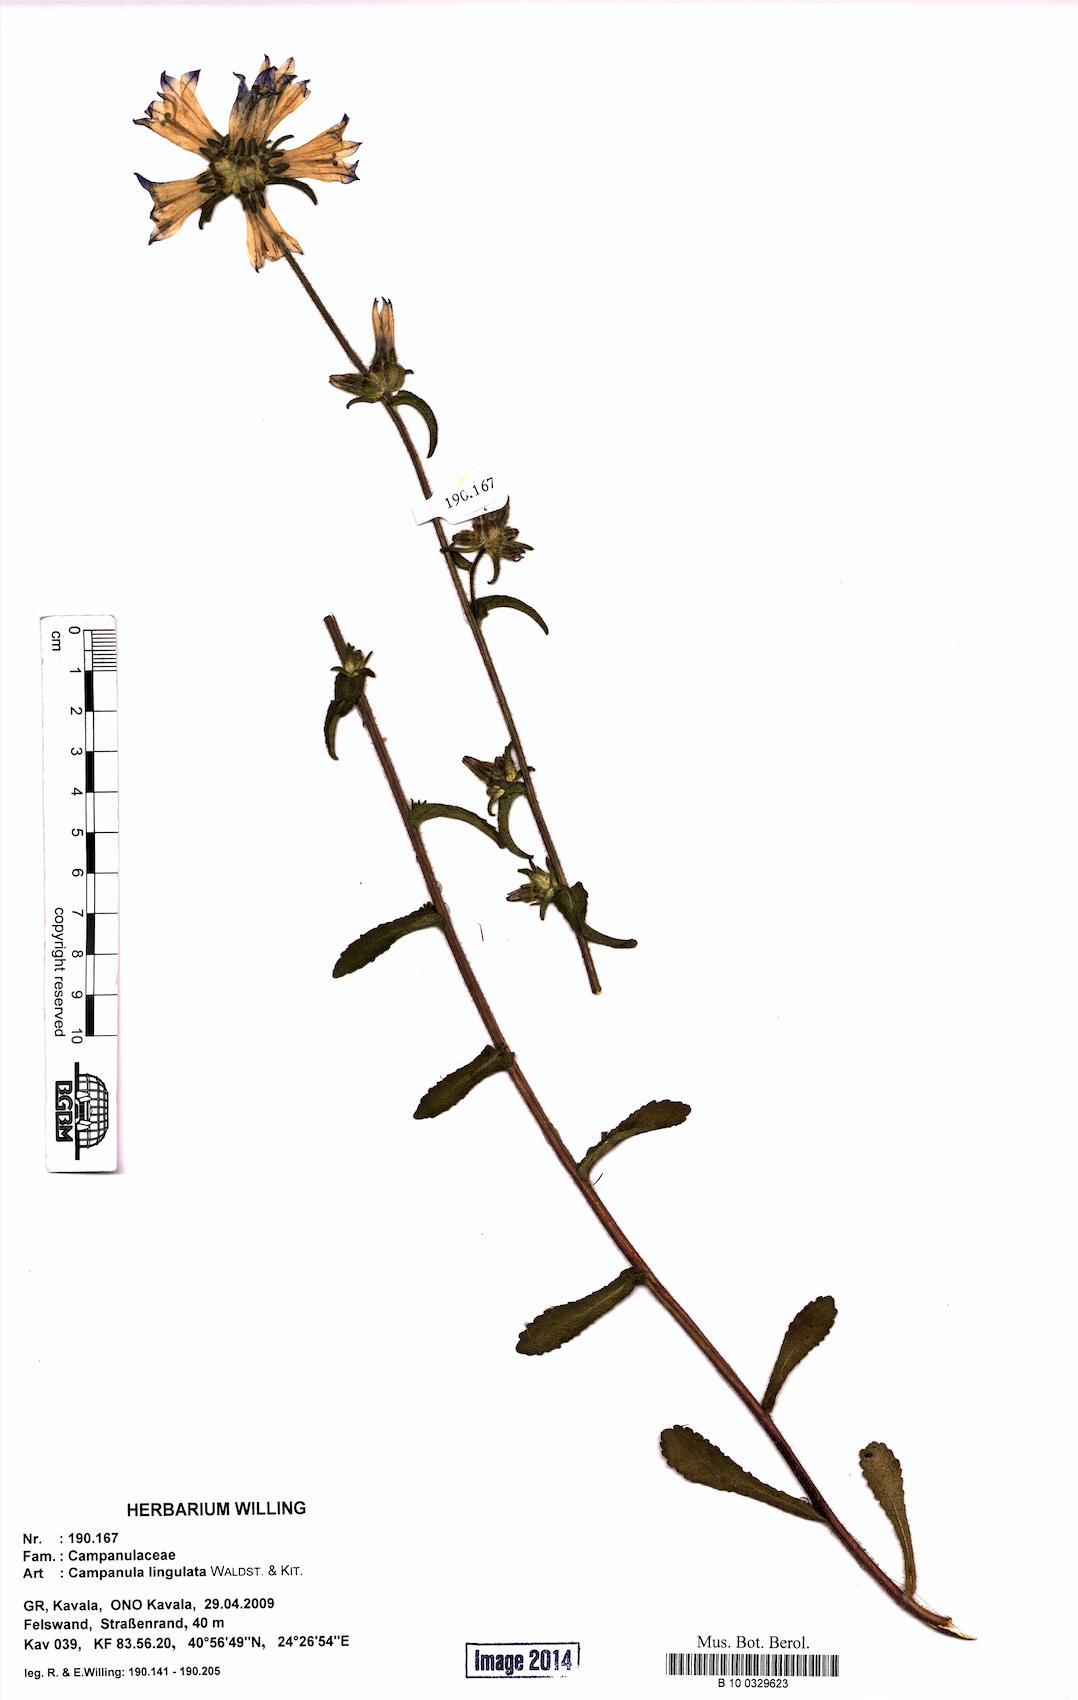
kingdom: Plantae
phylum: Tracheophyta
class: Magnoliopsida
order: Asterales
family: Campanulaceae
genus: Campanula
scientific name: Campanula lingulata
